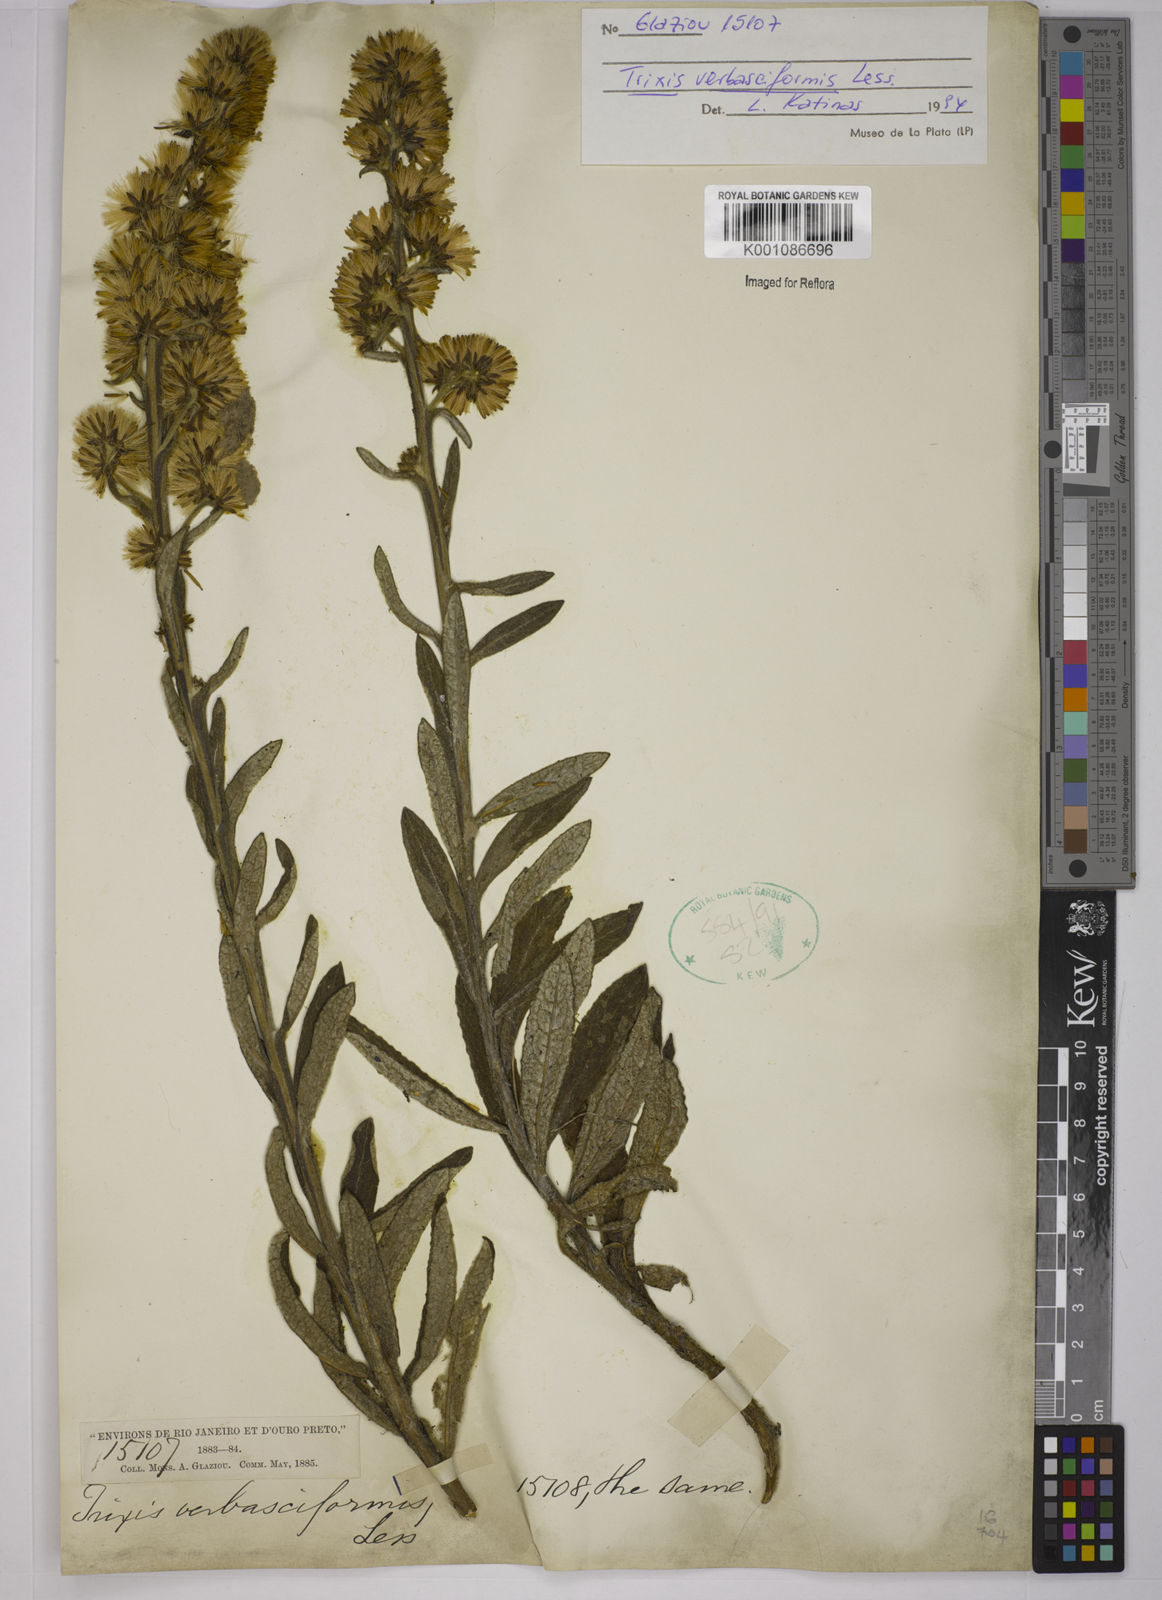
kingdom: Plantae
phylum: Tracheophyta
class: Magnoliopsida
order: Asterales
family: Asteraceae
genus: Trixis
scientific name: Trixis nobilis
